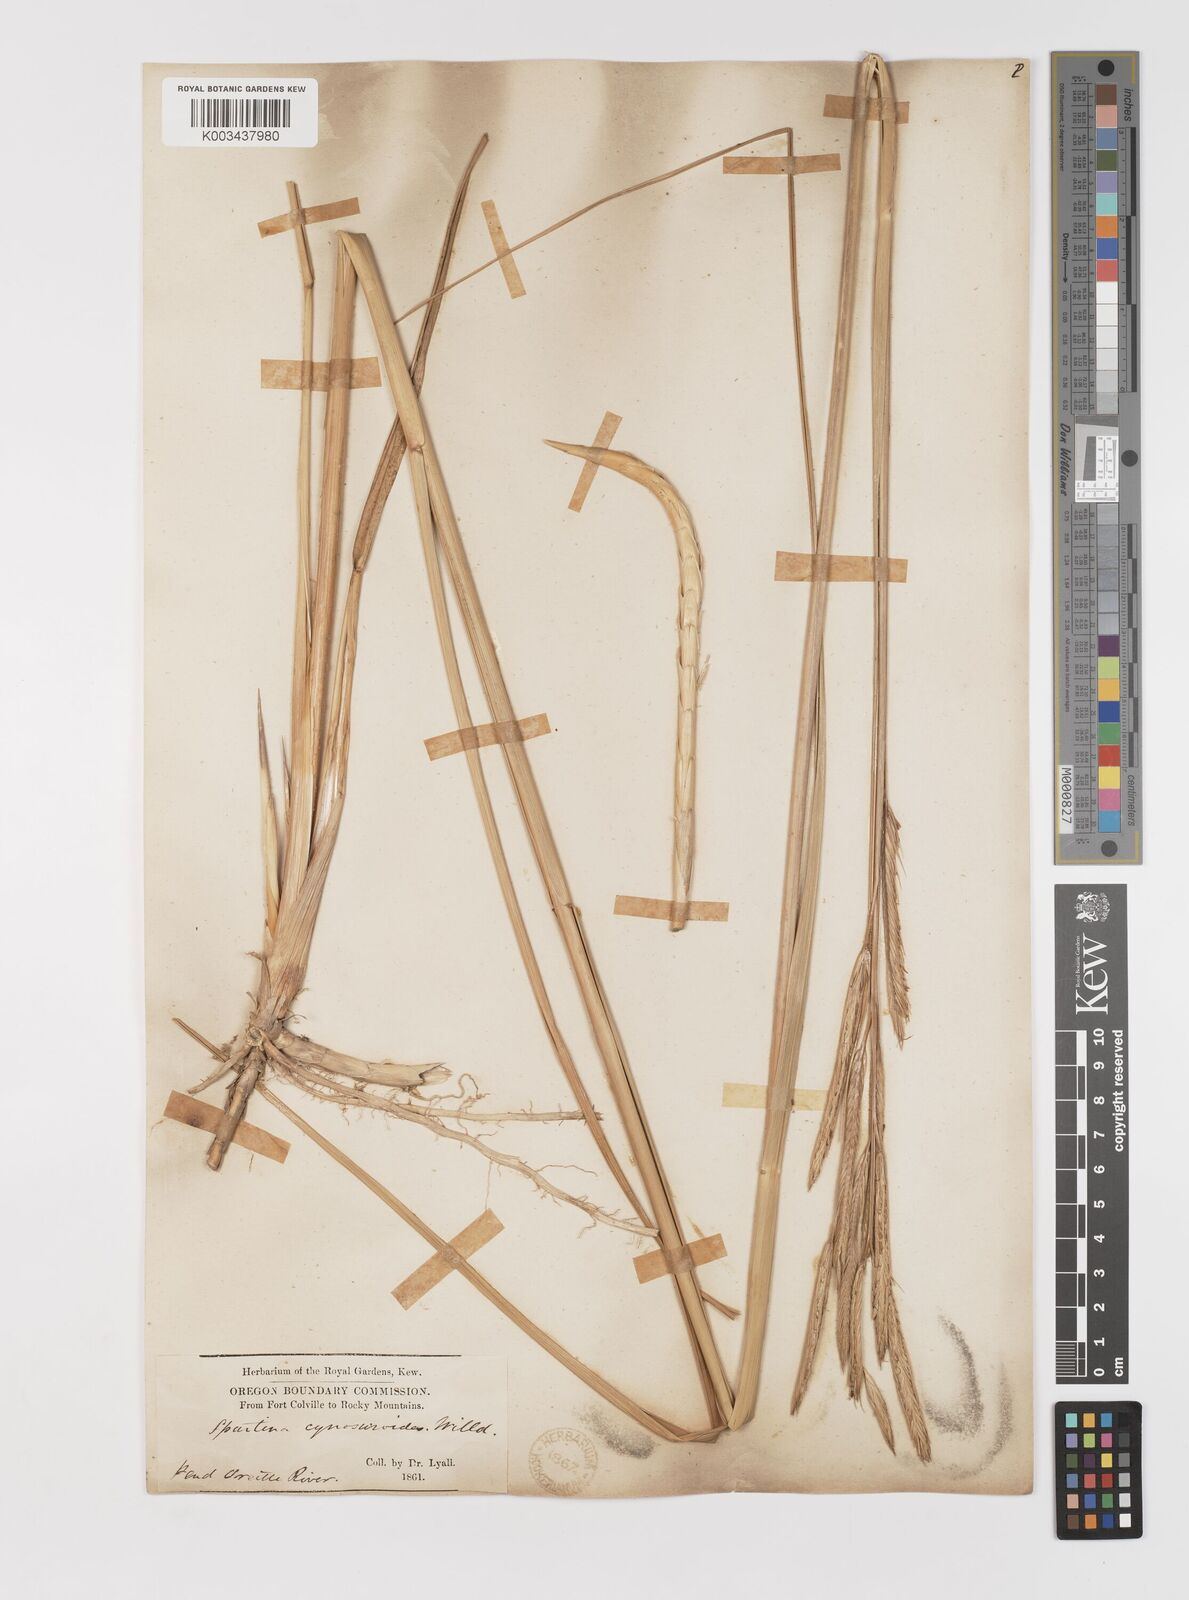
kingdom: Plantae
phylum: Tracheophyta
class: Liliopsida
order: Poales
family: Poaceae
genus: Sporobolus
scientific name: Sporobolus michauxianus
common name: Freshwater cordgrass
